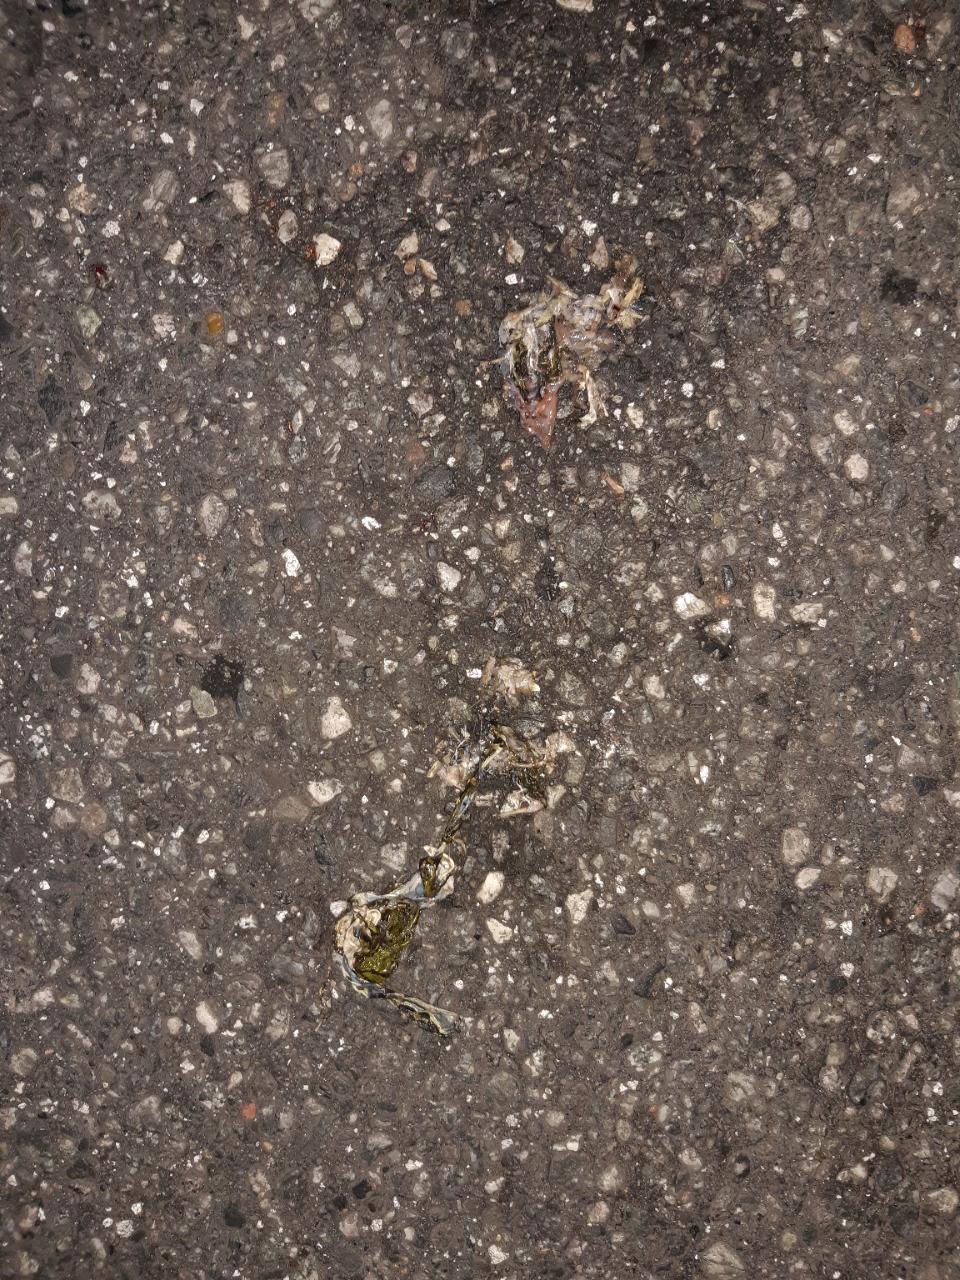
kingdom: Animalia
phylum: Chordata
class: Amphibia
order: Anura
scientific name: Anura
